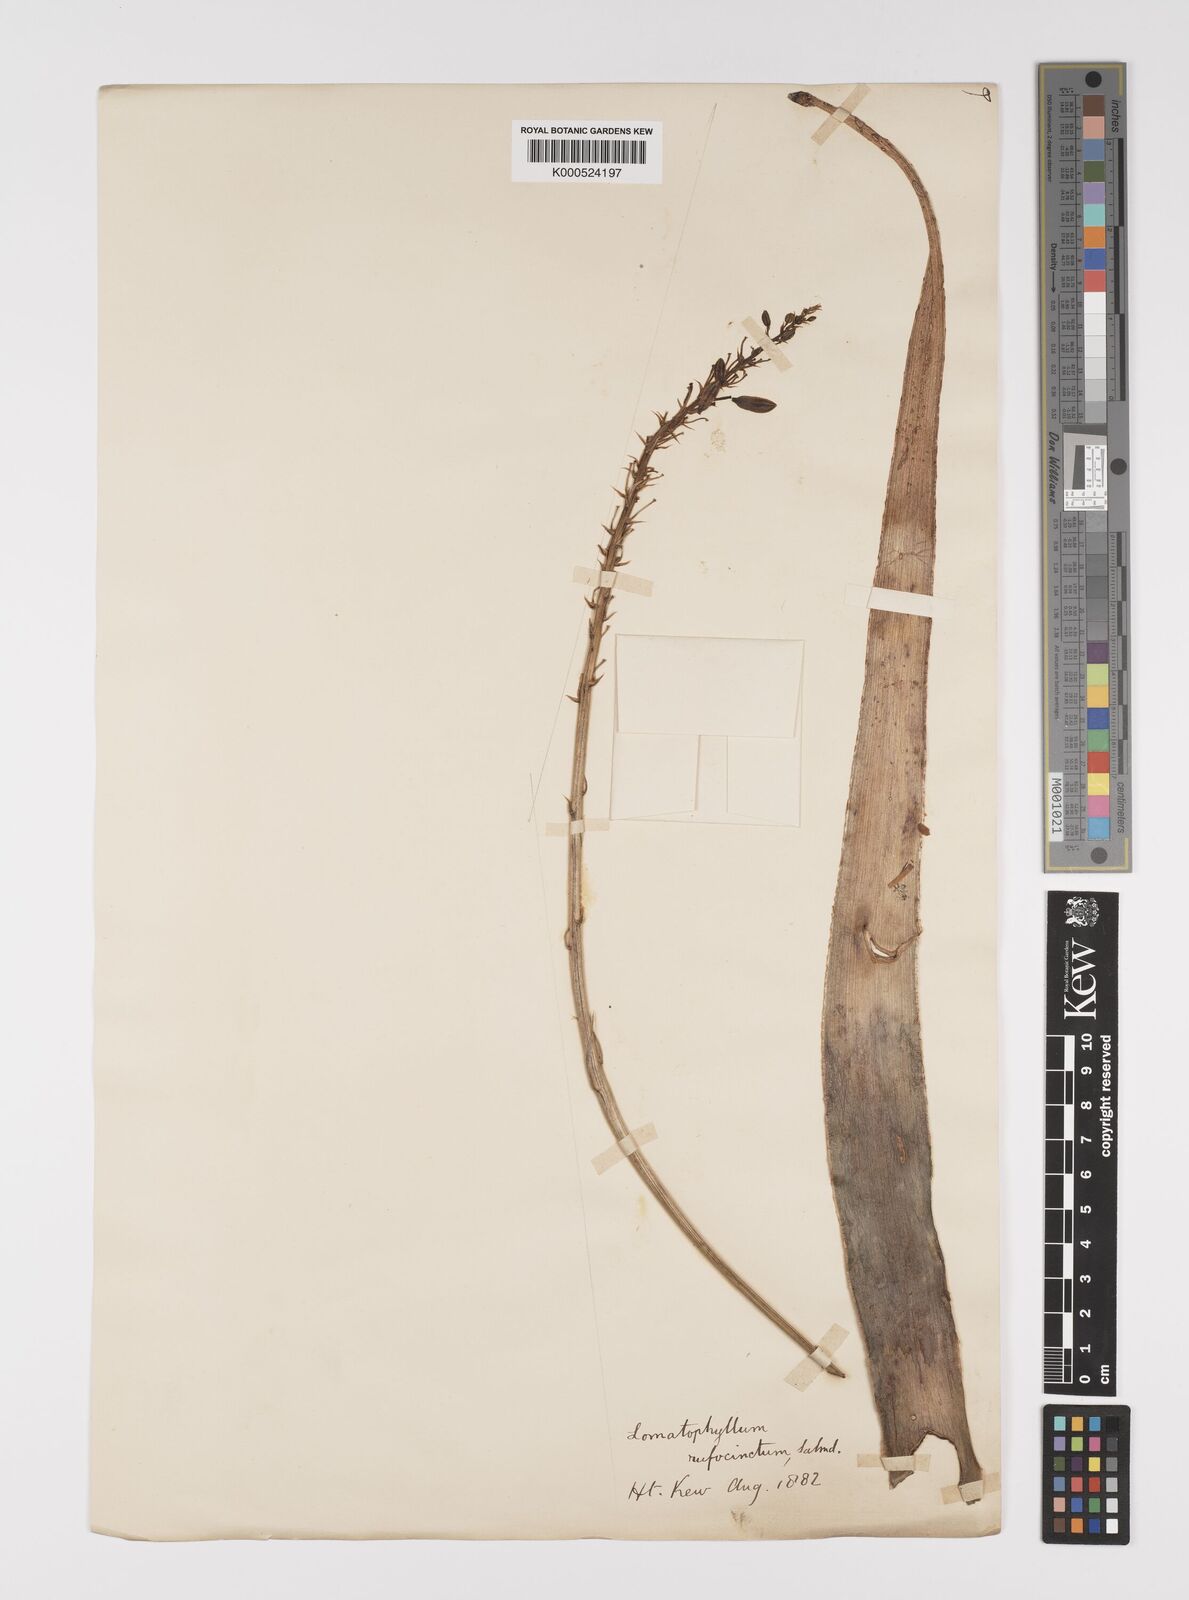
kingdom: Plantae
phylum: Tracheophyta
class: Liliopsida
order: Asparagales
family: Asphodelaceae
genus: Aloe
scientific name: Aloe purpurea
